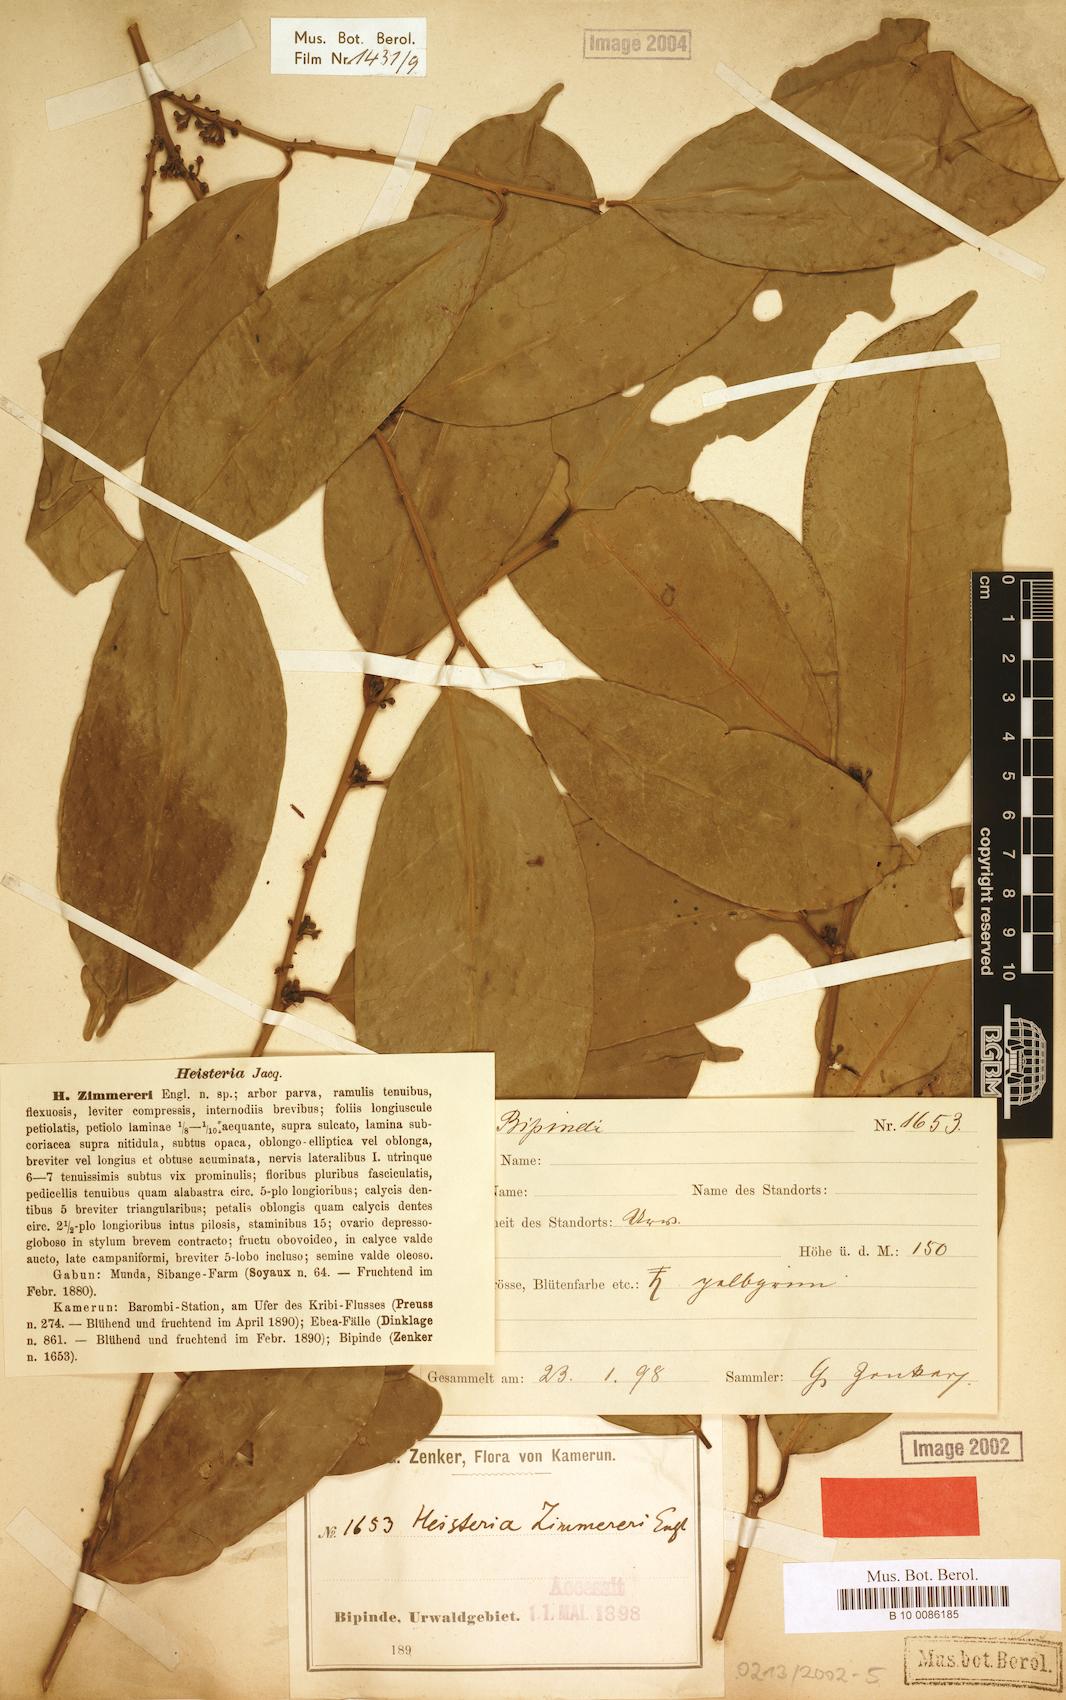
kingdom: Plantae
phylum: Tracheophyta
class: Magnoliopsida
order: Santalales
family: Erythropalaceae
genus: Heisteria
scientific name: Heisteria zimmereri
